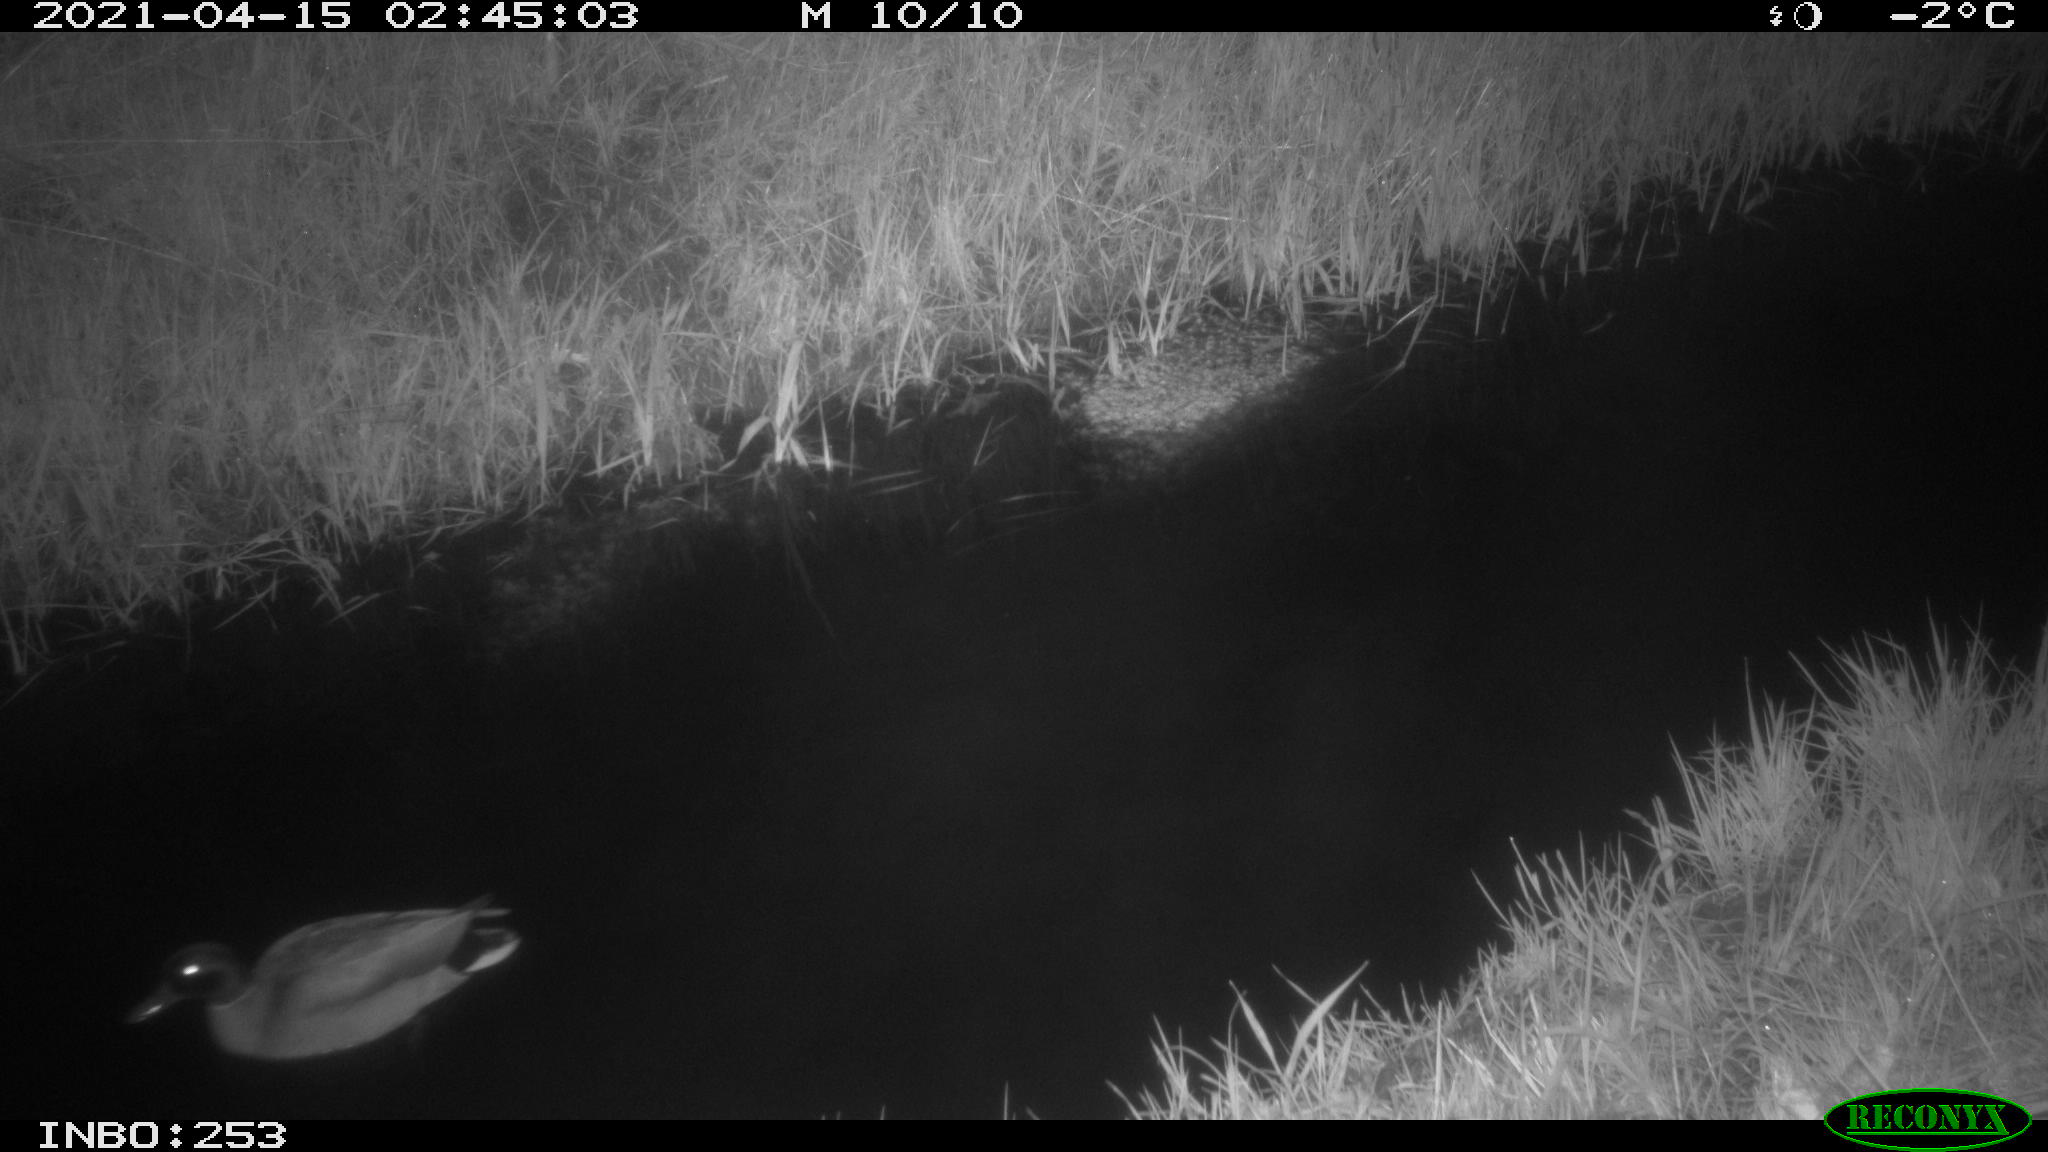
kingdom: Animalia
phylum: Chordata
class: Aves
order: Anseriformes
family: Anatidae
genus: Anas
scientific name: Anas platyrhynchos
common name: Mallard
